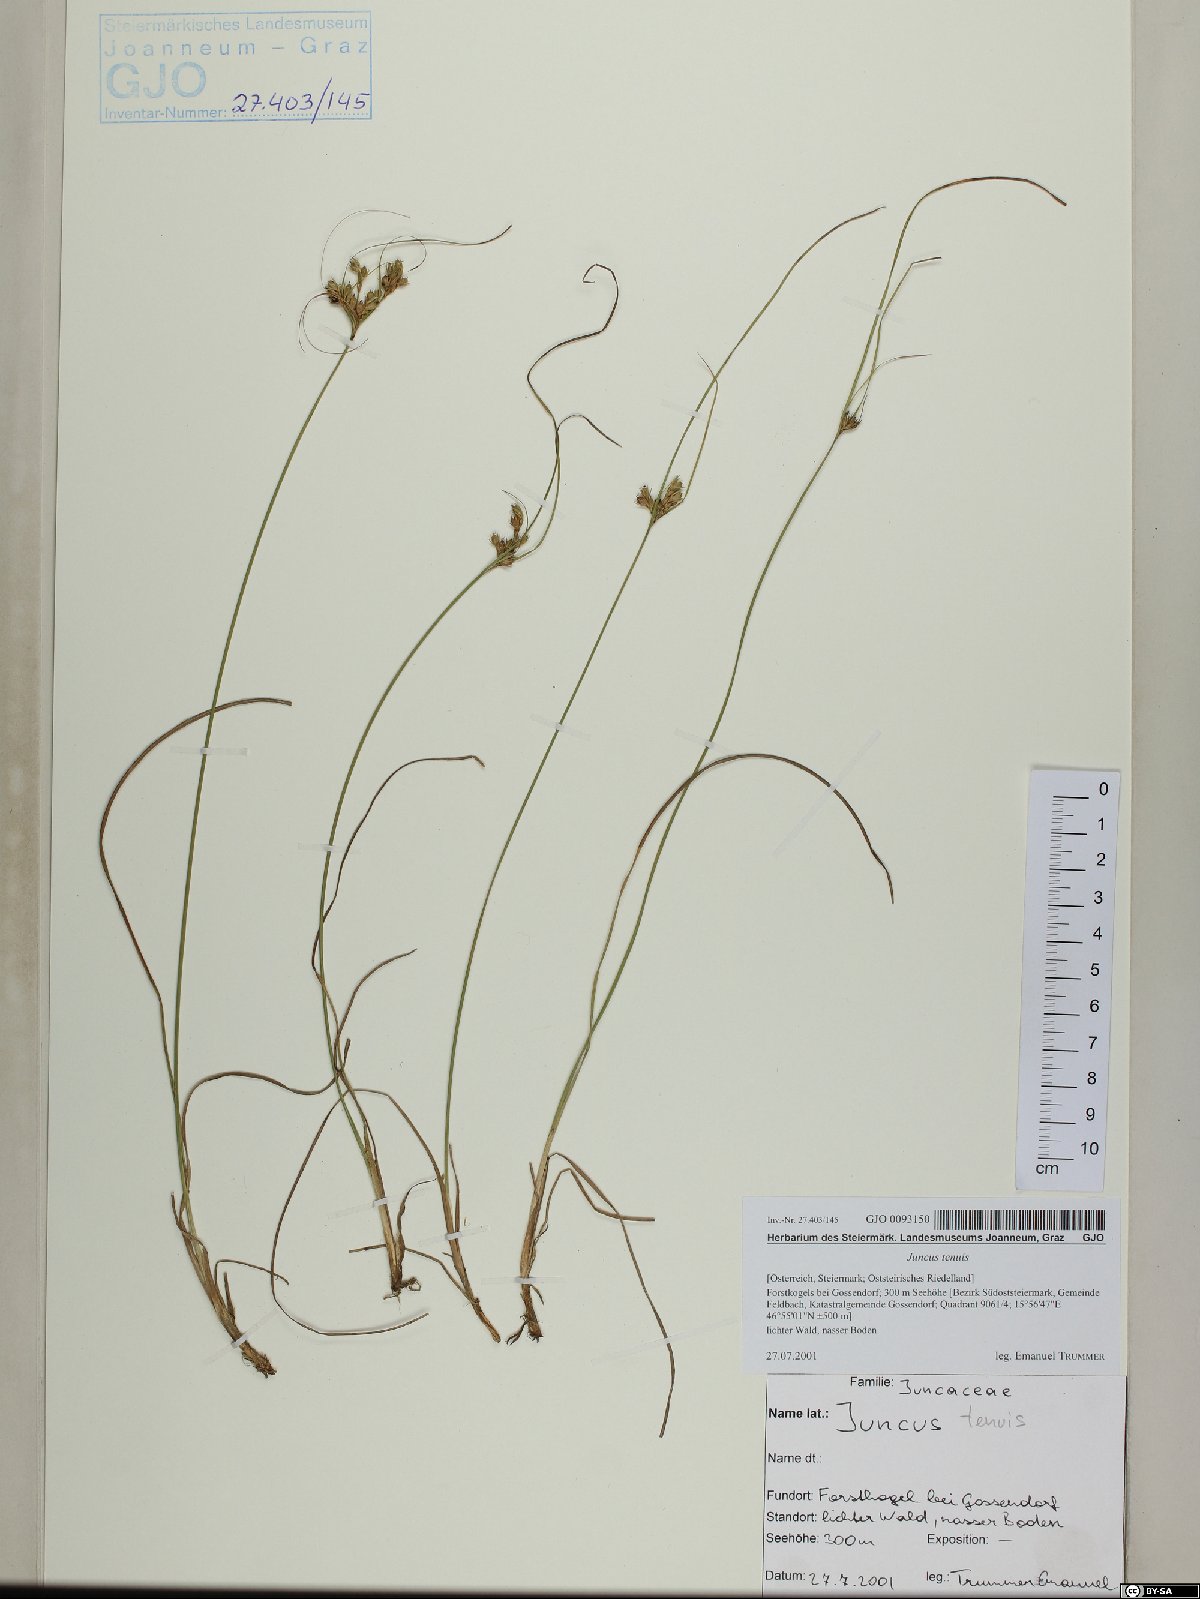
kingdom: Plantae
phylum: Tracheophyta
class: Liliopsida
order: Poales
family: Juncaceae
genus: Juncus
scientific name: Juncus tenuis
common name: Slender rush
